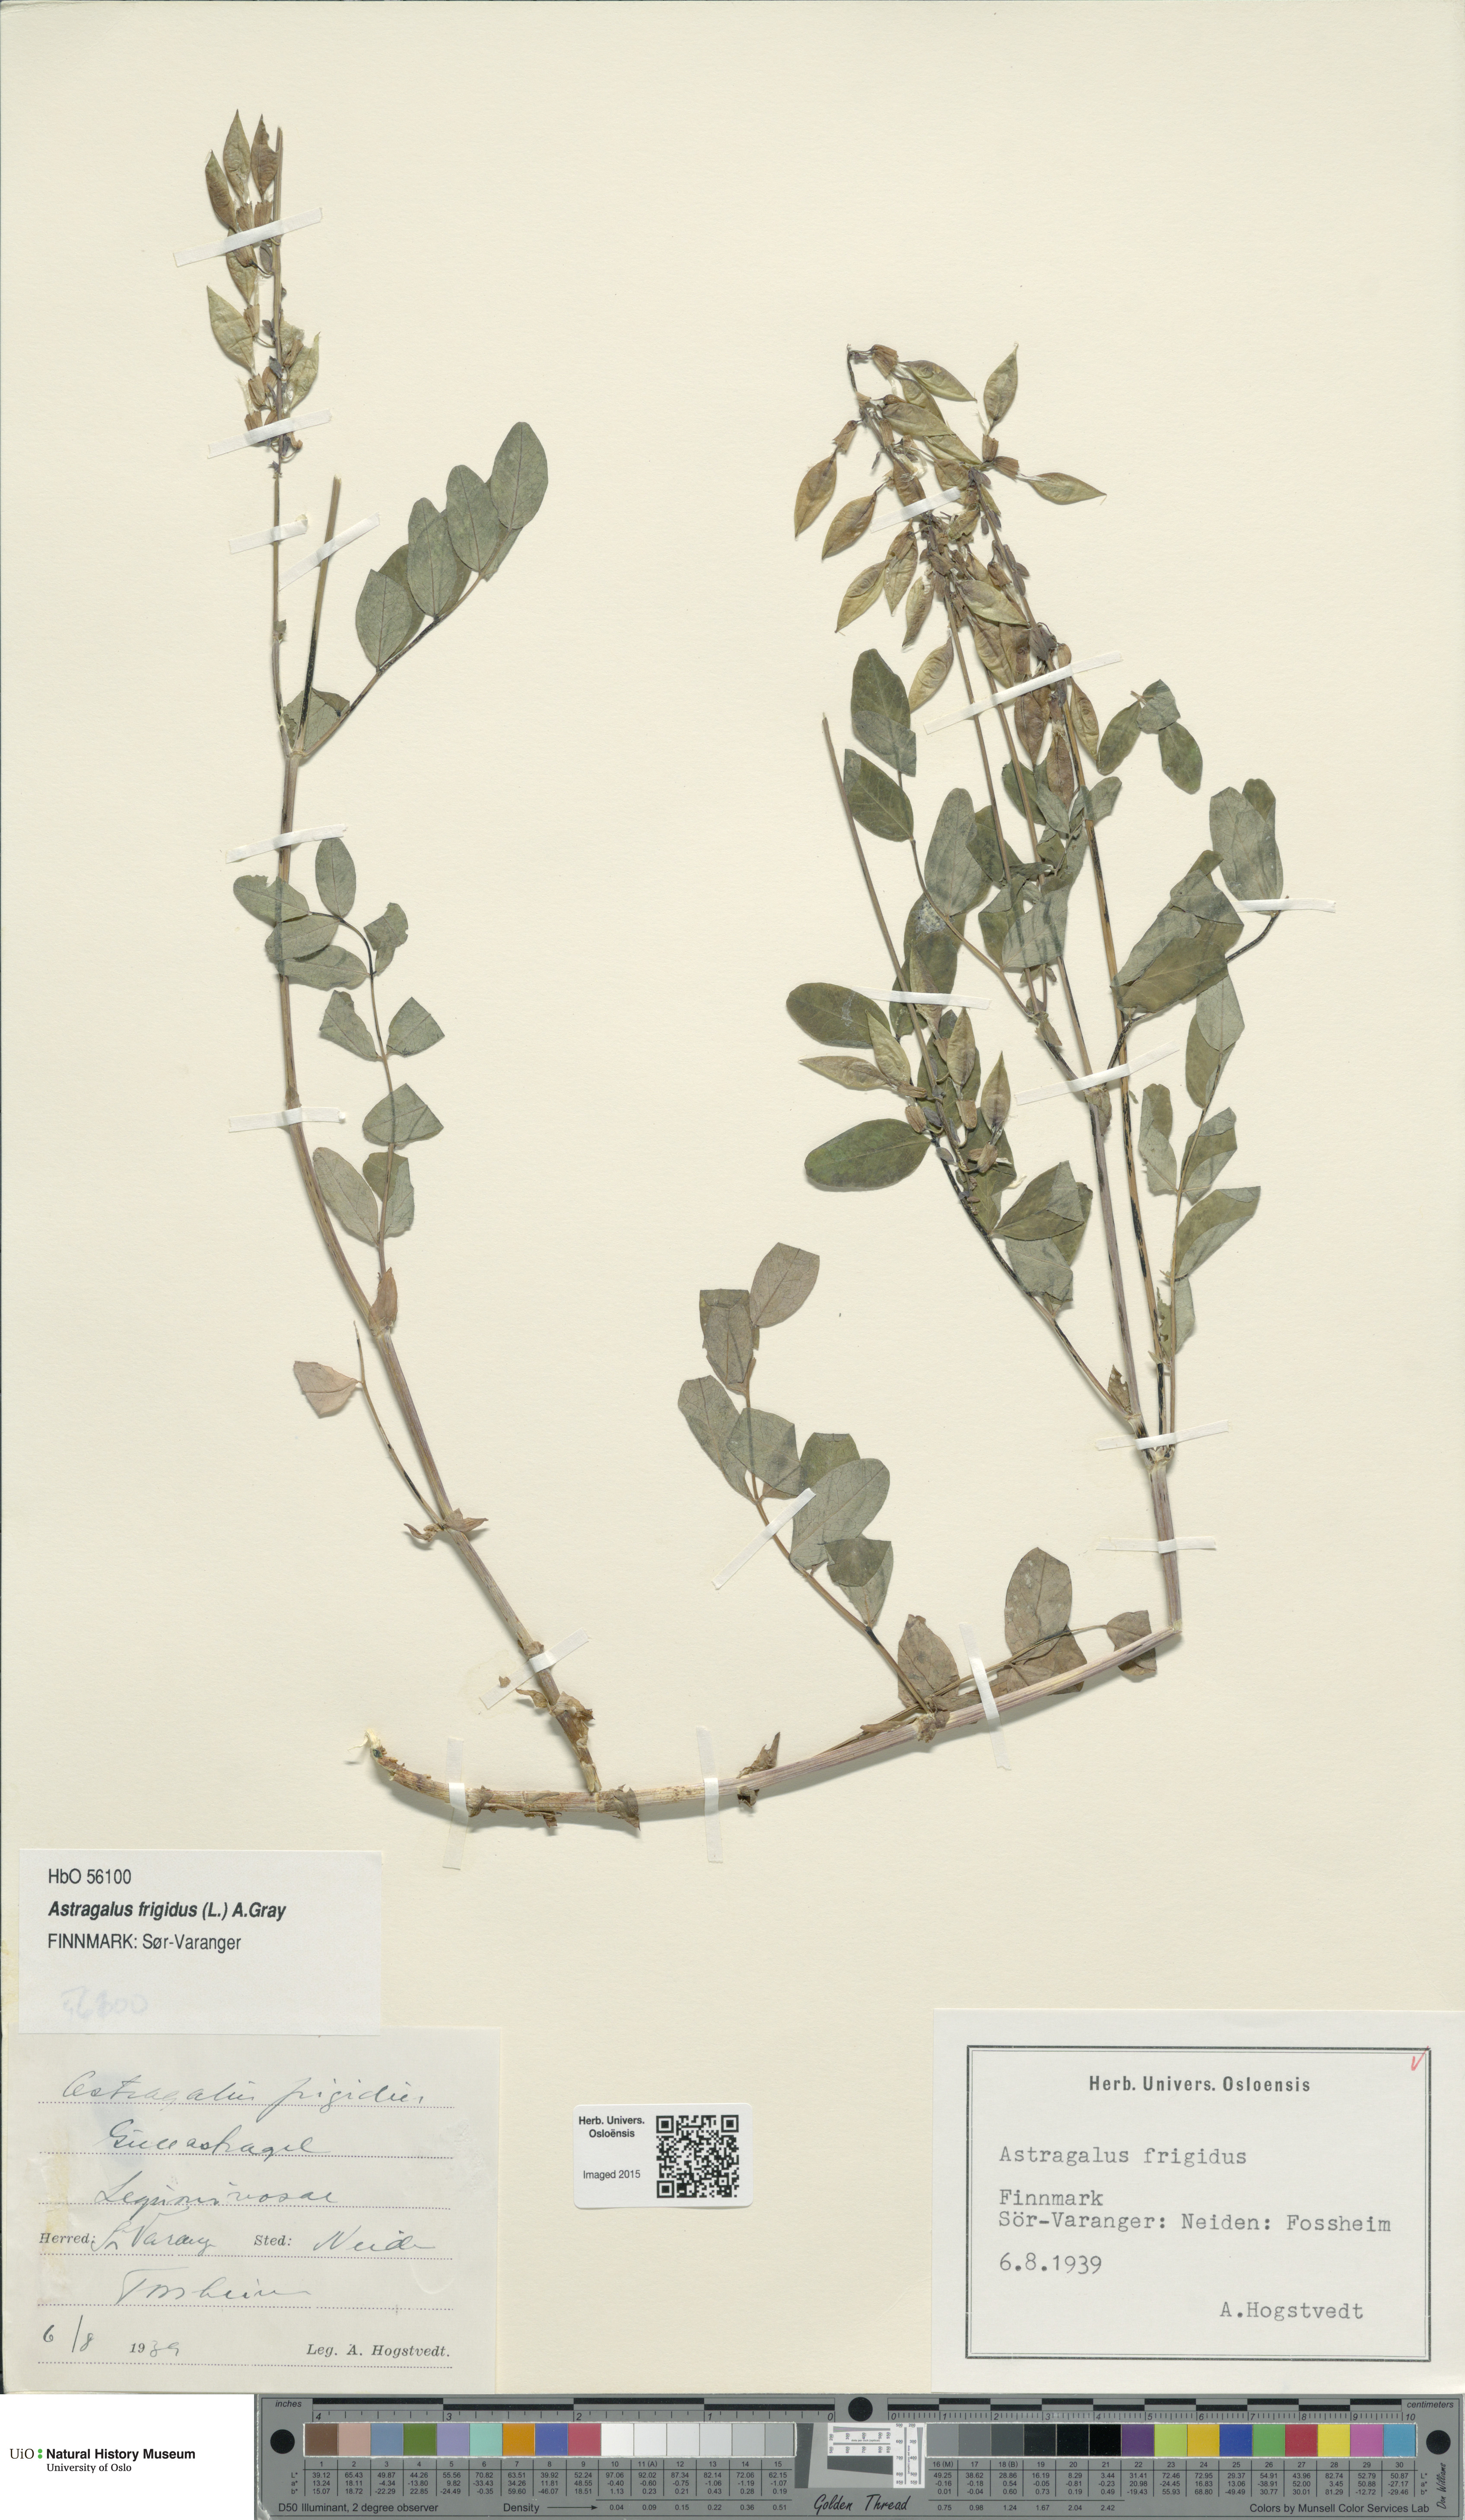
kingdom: Plantae
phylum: Tracheophyta
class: Magnoliopsida
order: Fabales
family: Fabaceae
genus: Astragalus
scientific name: Astragalus frigidus
